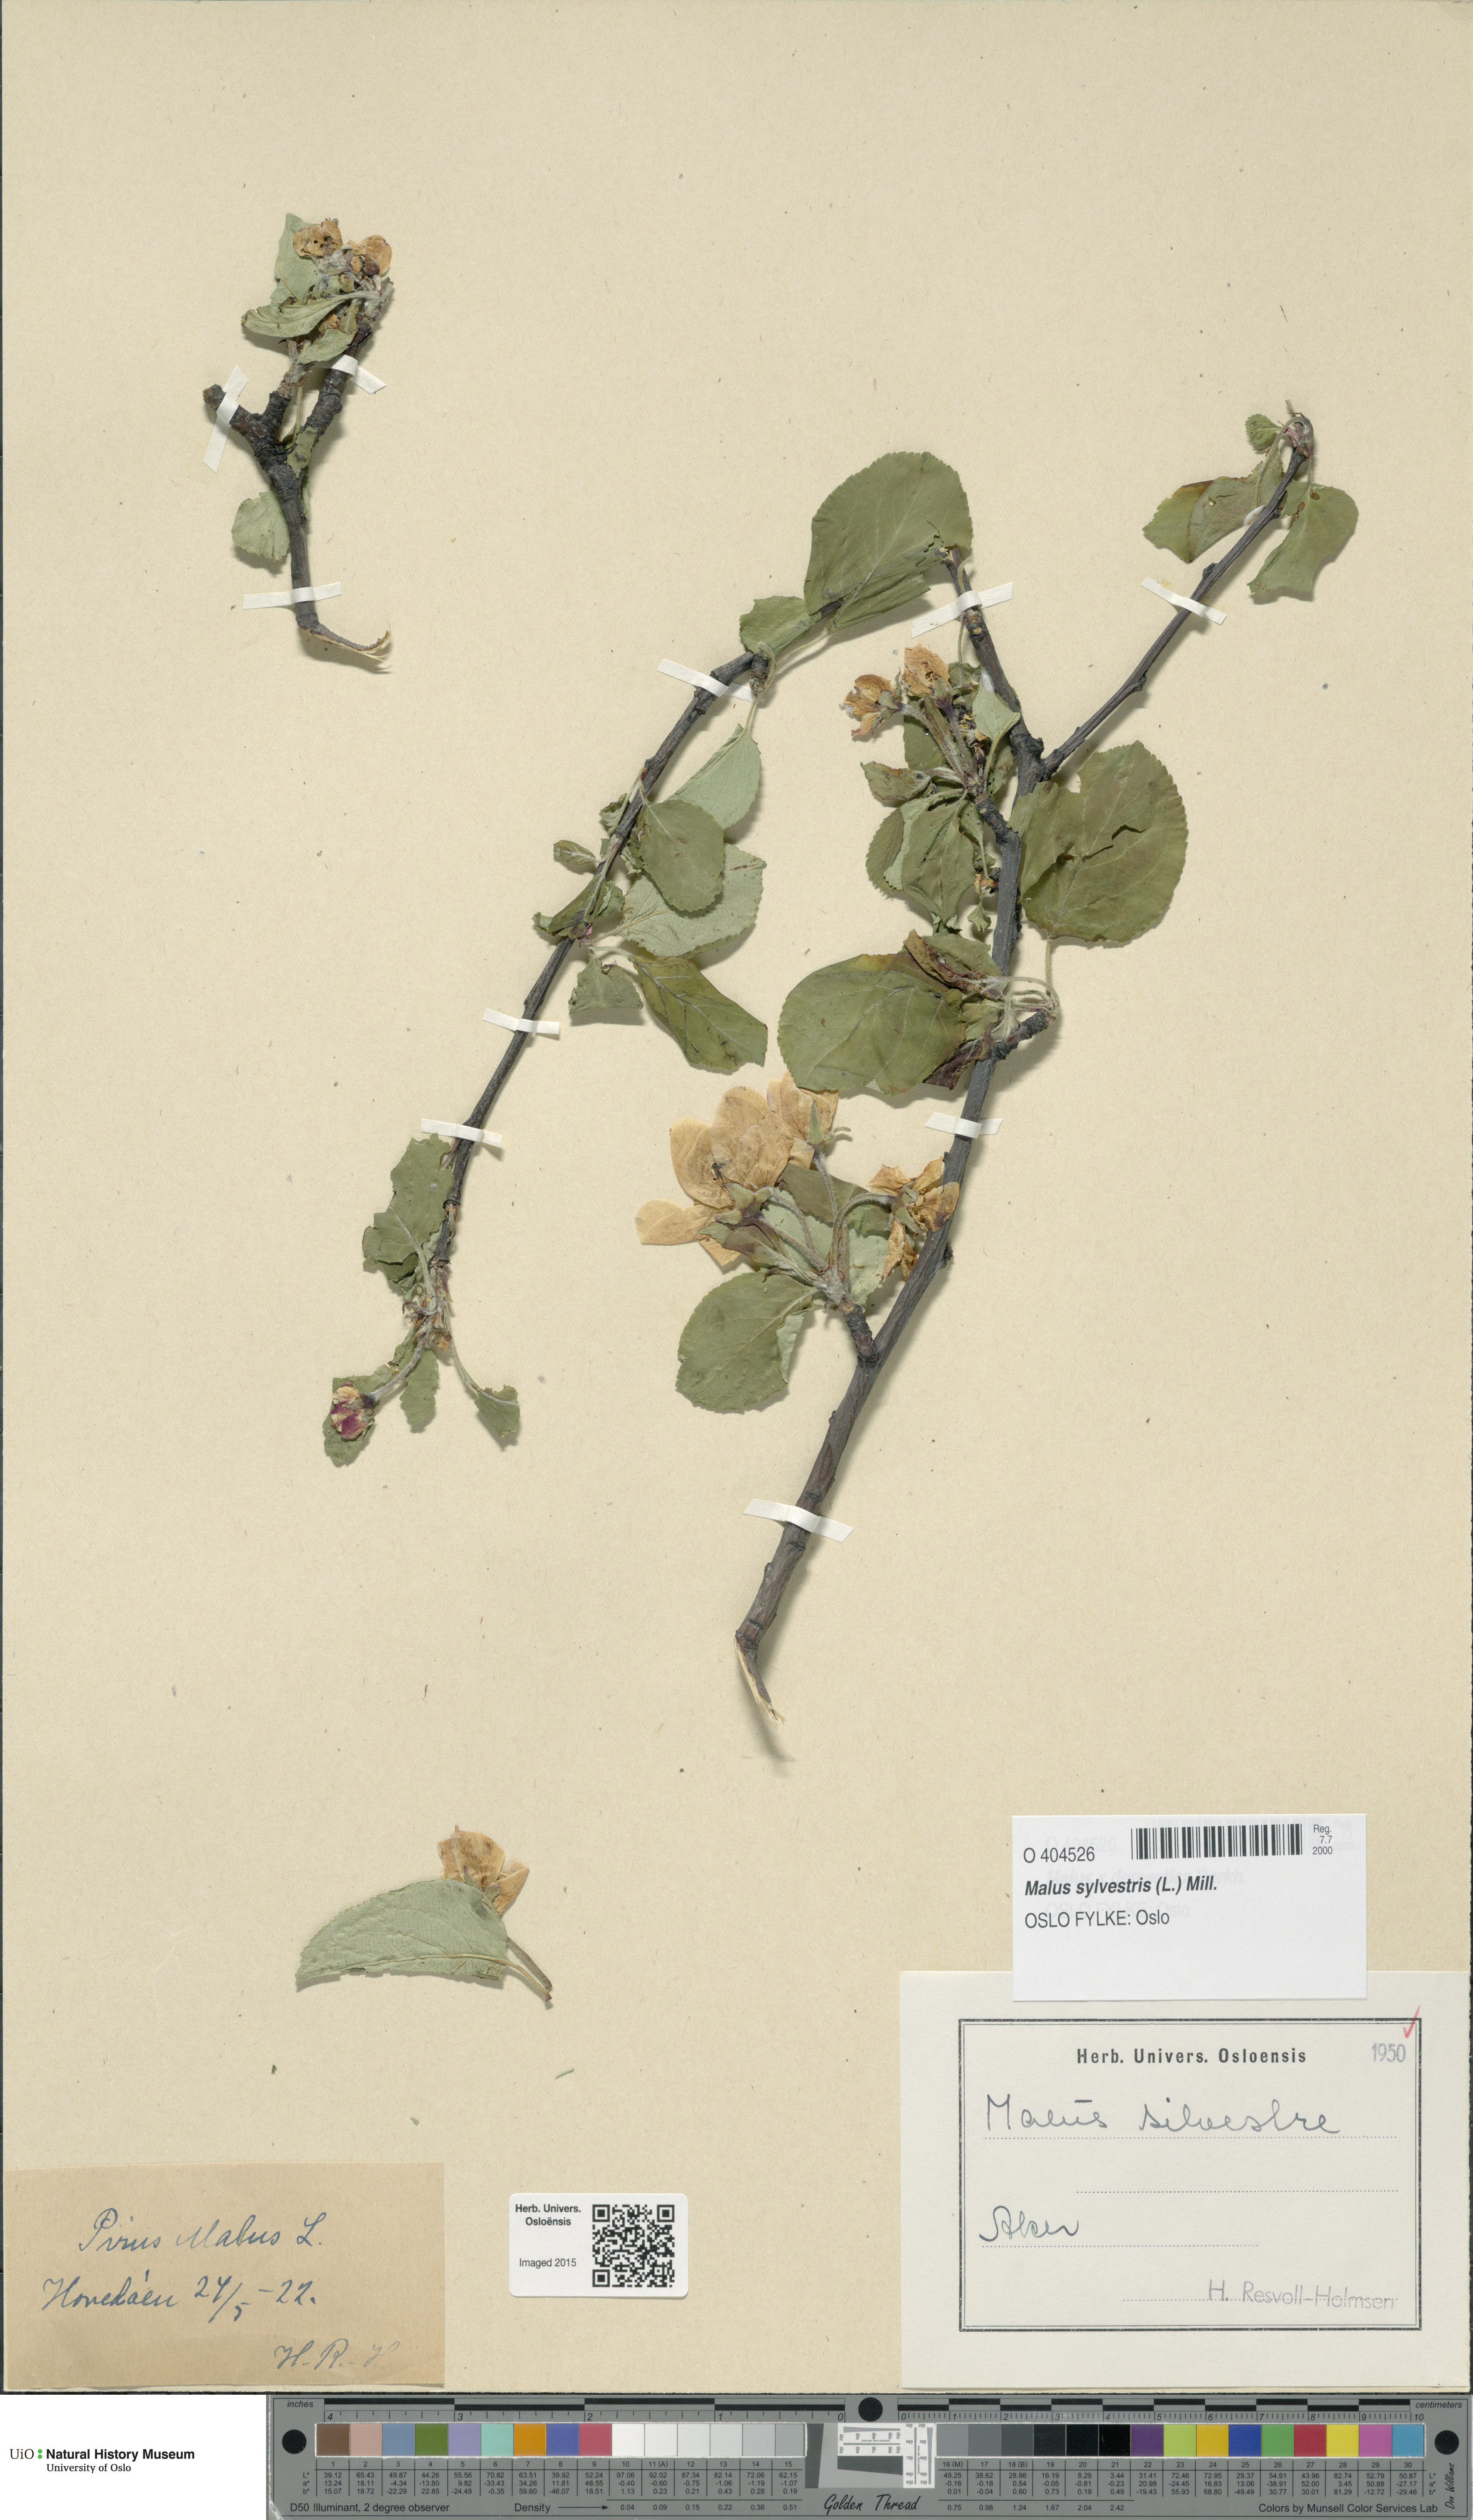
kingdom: Plantae
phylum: Tracheophyta
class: Magnoliopsida
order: Rosales
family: Rosaceae
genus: Malus
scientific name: Malus domestica
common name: Apple
